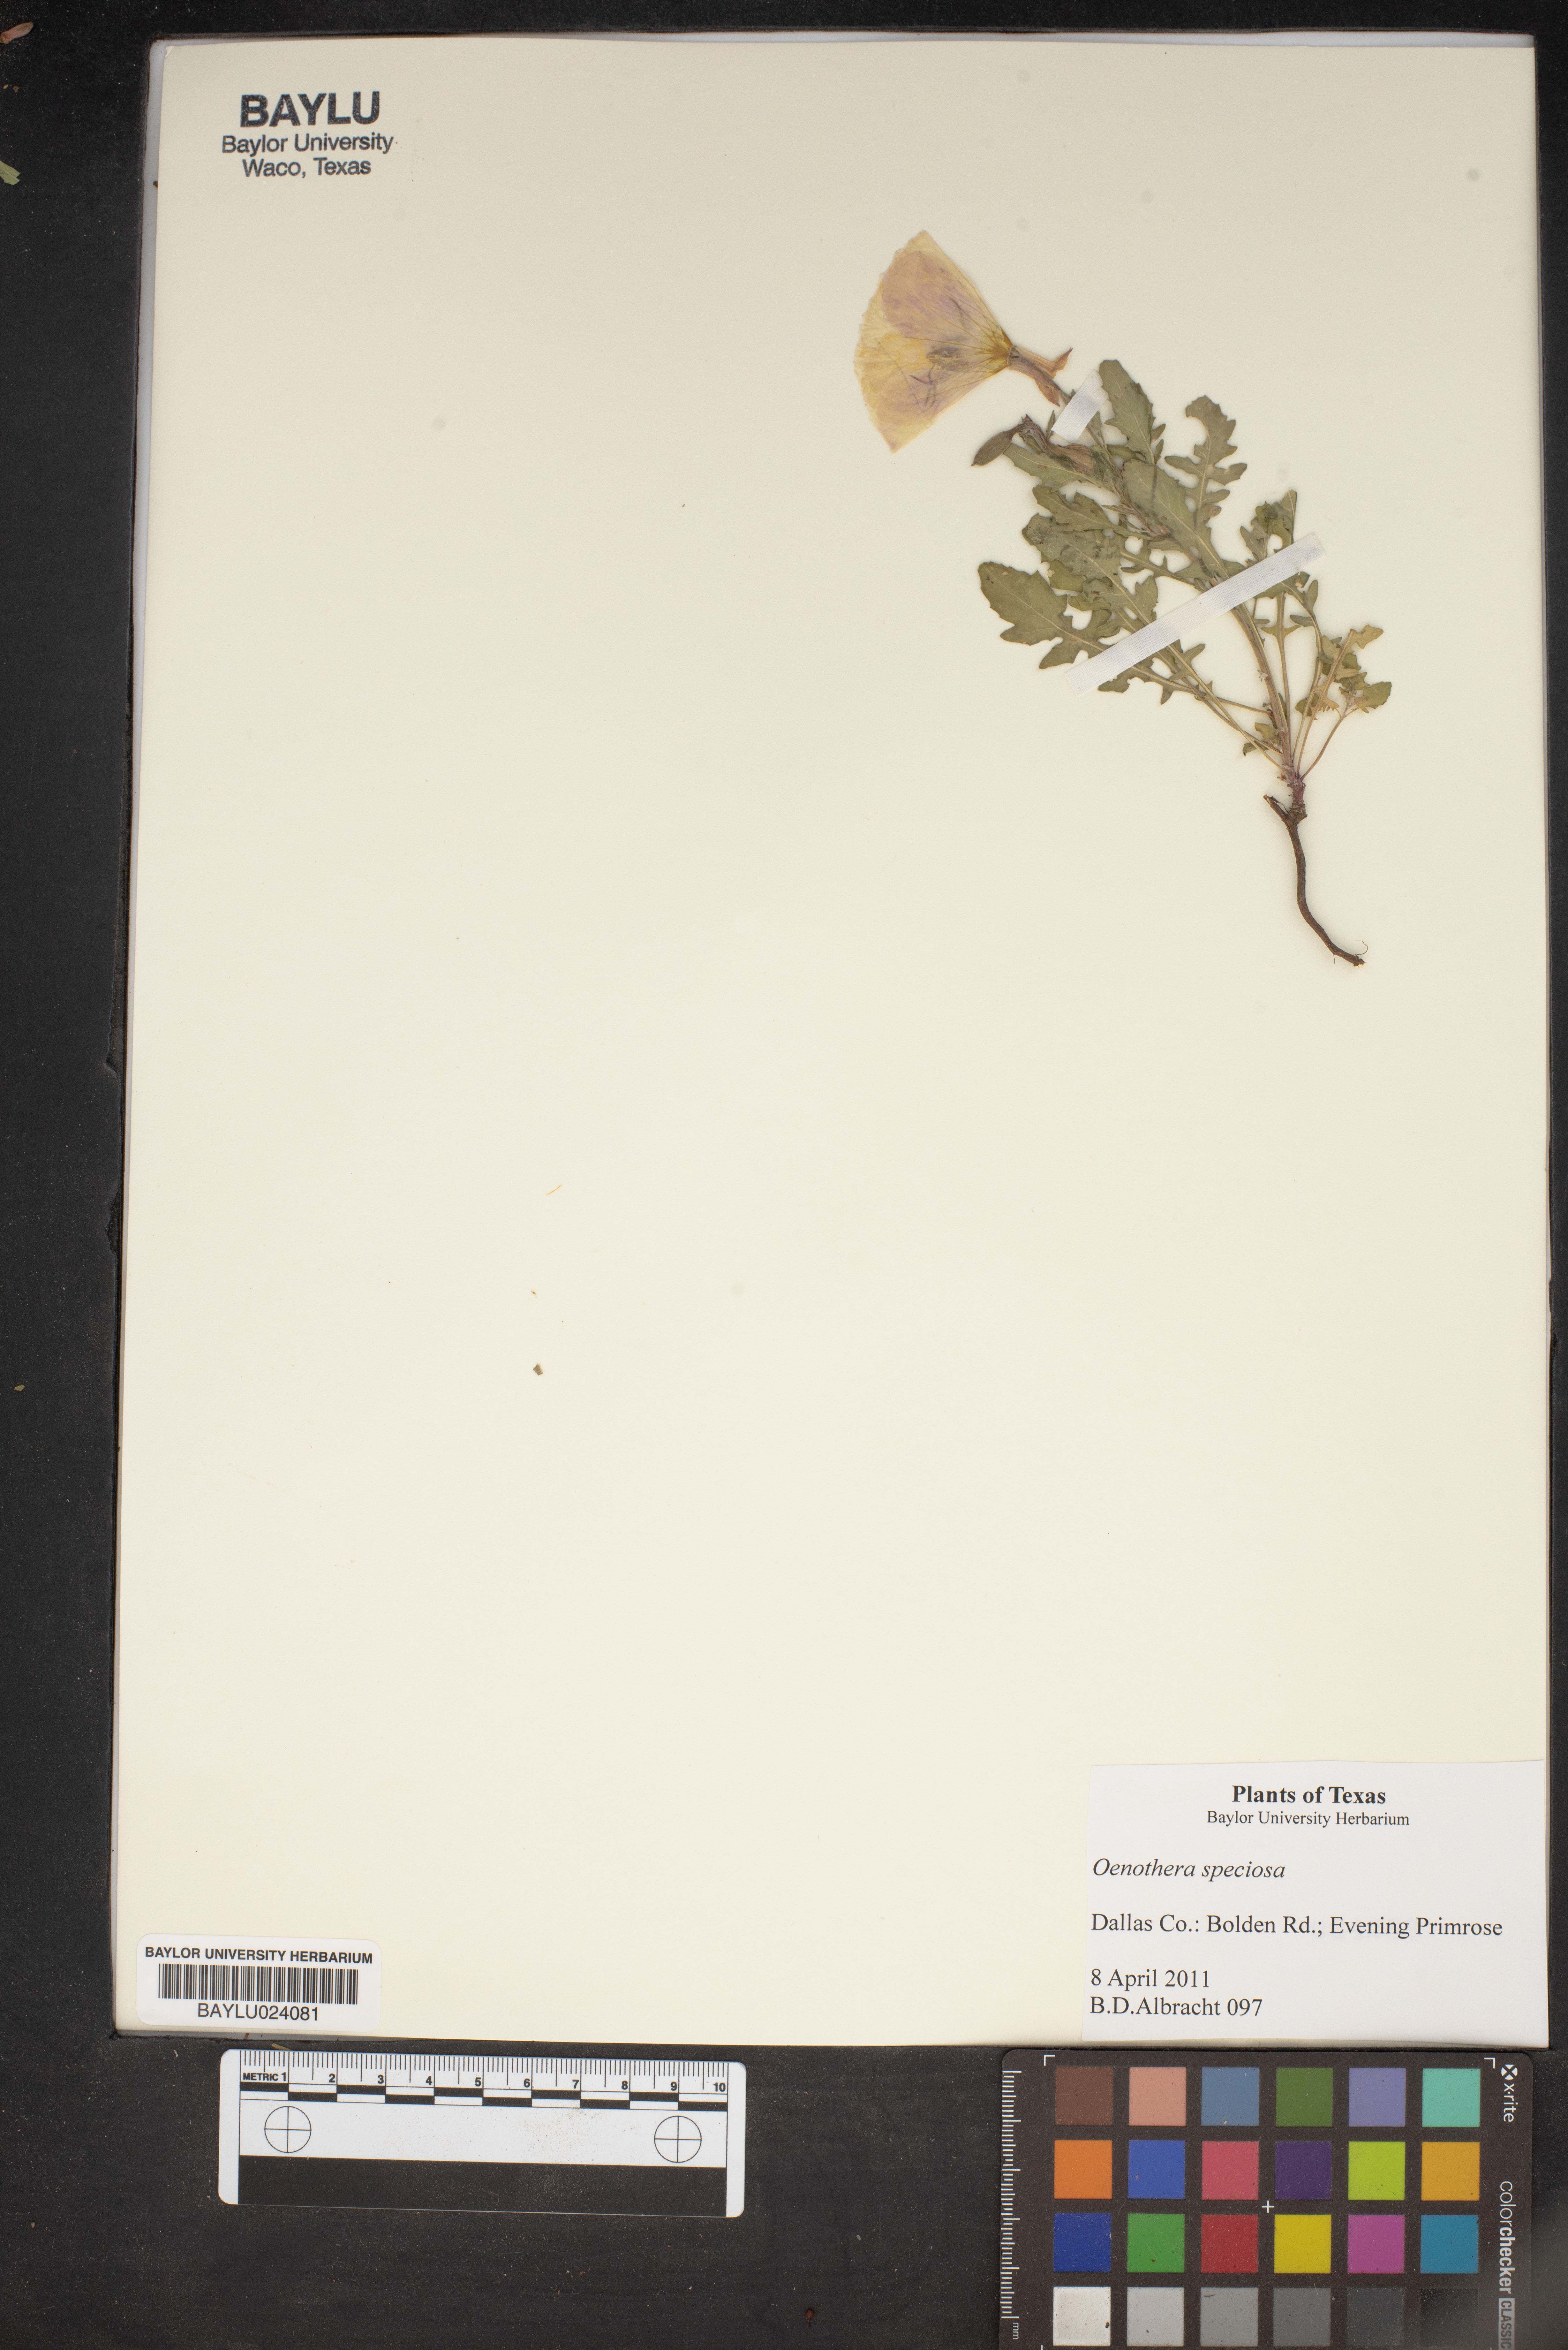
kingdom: Plantae
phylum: Tracheophyta
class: Magnoliopsida
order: Myrtales
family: Onagraceae
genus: Oenothera
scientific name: Oenothera speciosa
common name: White evening-primrose
